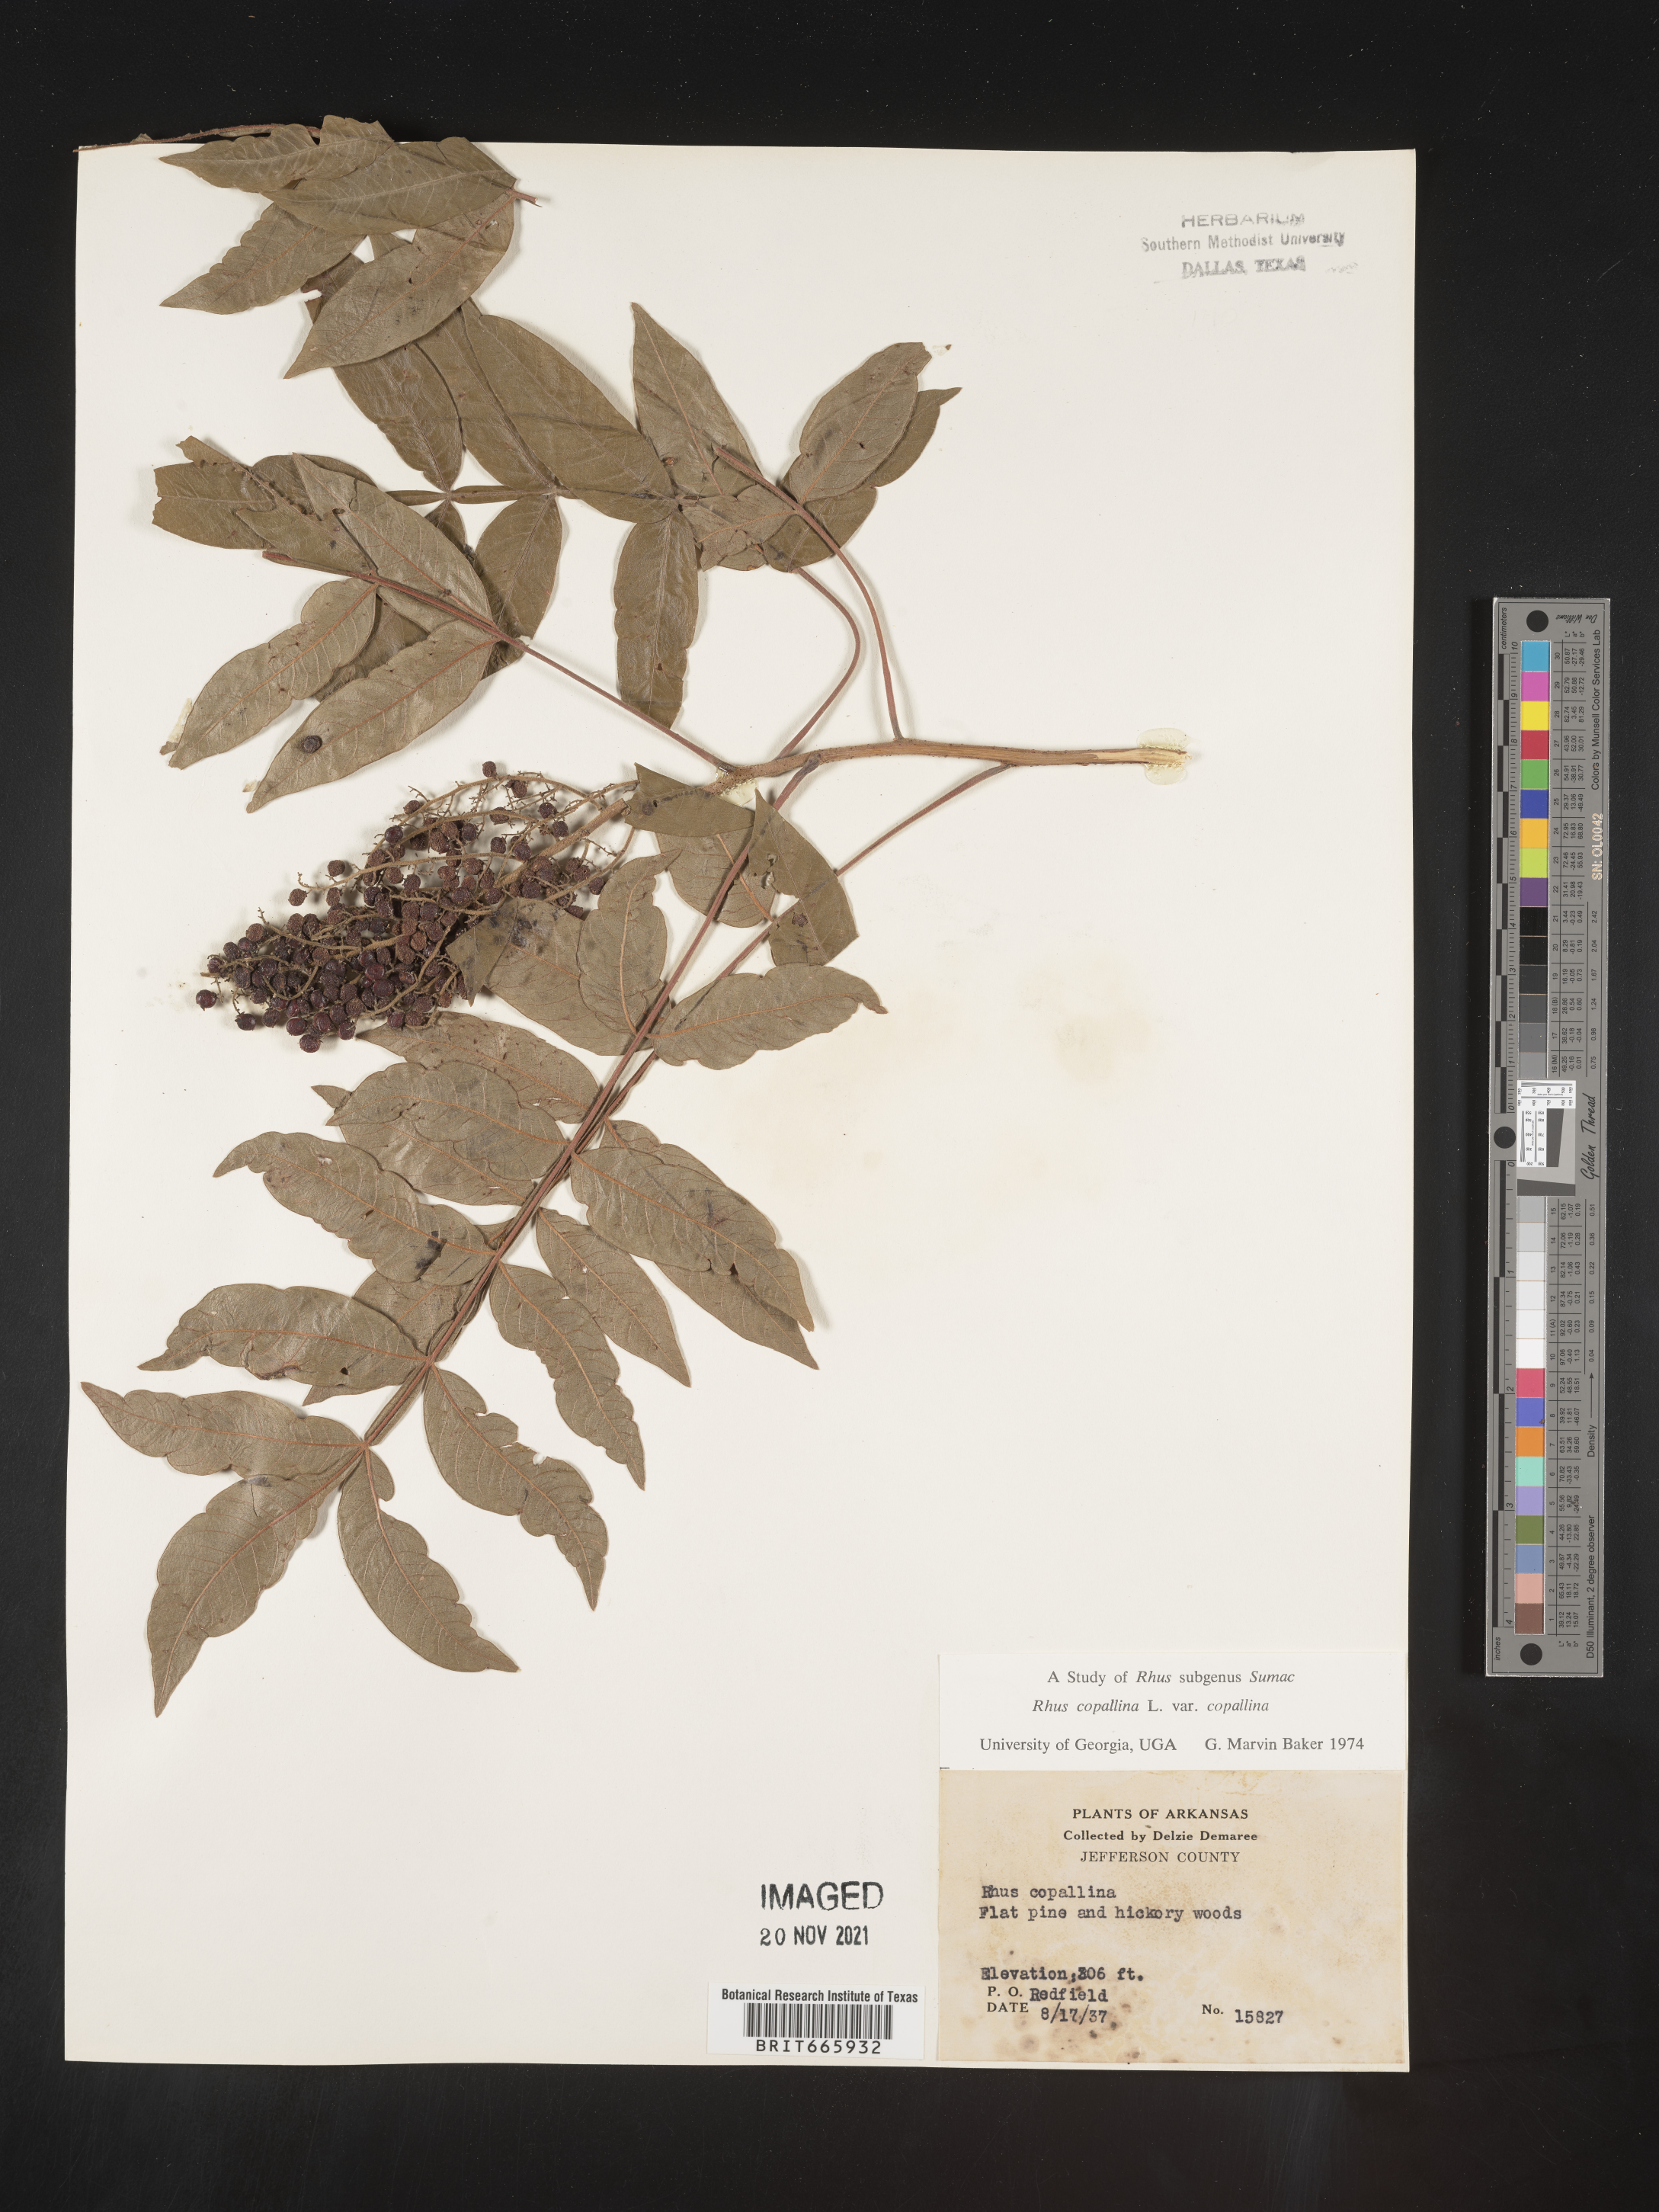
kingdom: Plantae
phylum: Tracheophyta
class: Magnoliopsida
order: Sapindales
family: Anacardiaceae
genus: Rhus
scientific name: Rhus copallina
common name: Shining sumac
